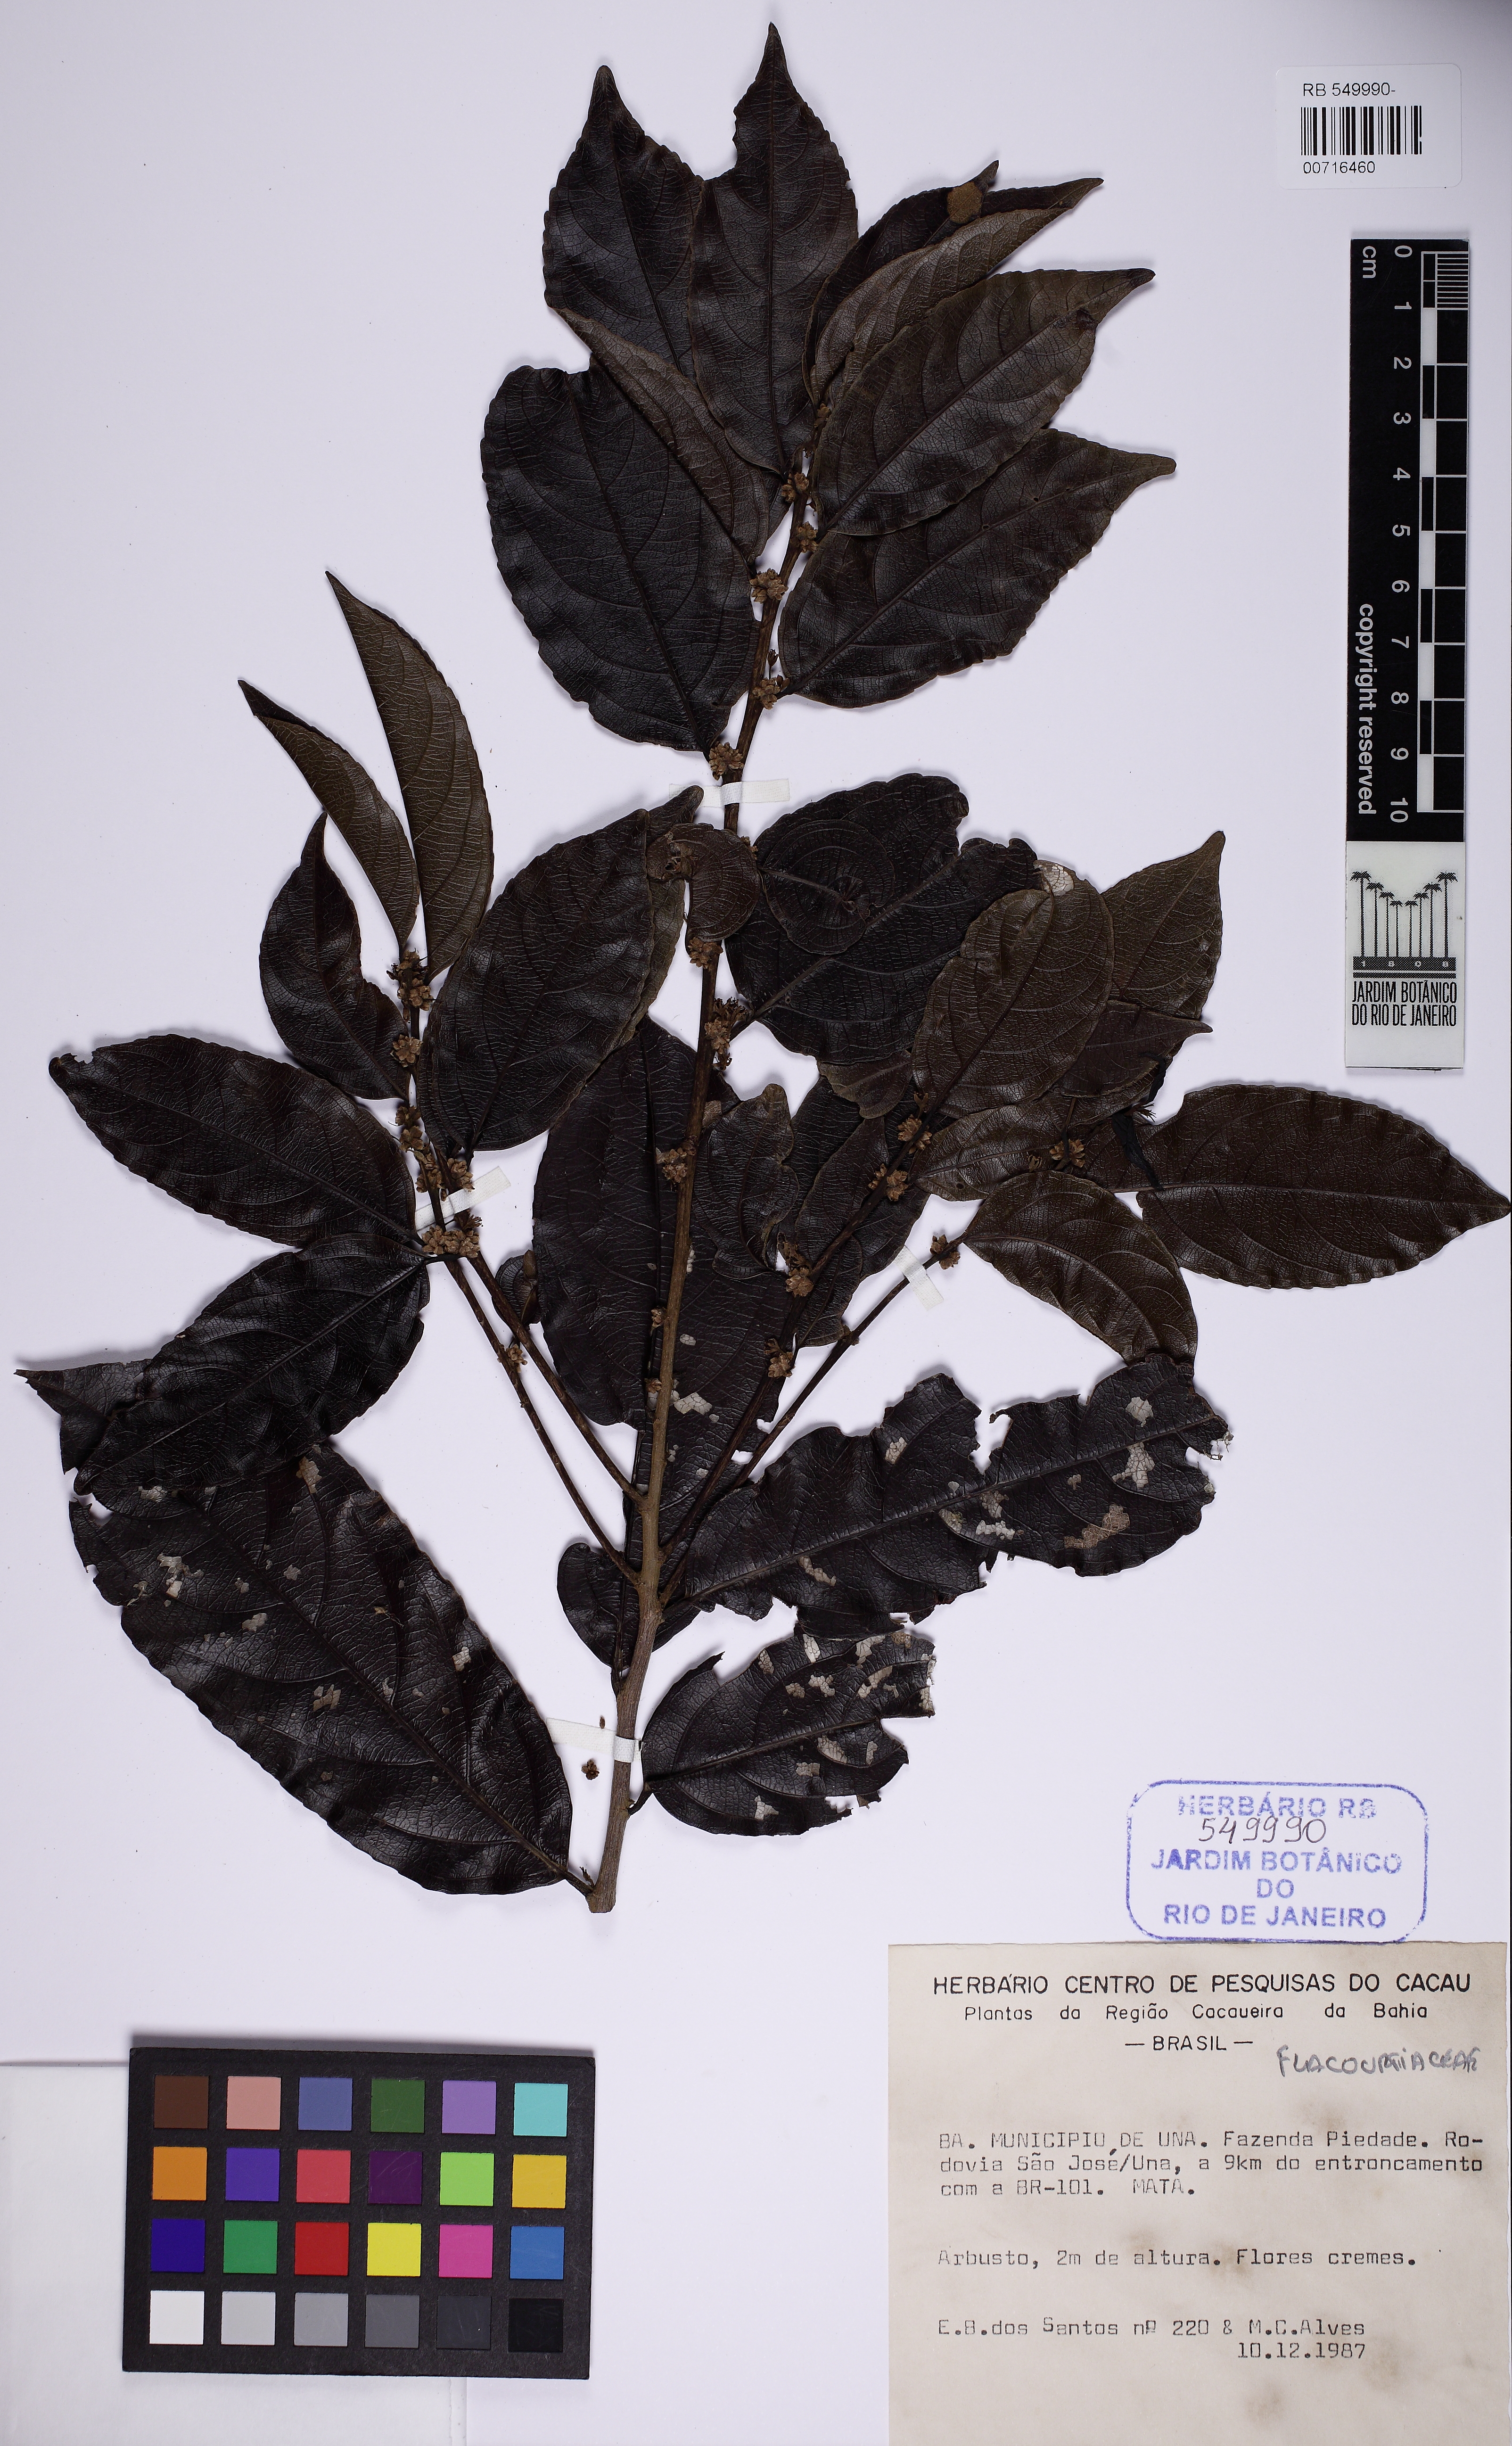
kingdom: Plantae
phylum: Tracheophyta
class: Magnoliopsida
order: Malpighiales
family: Salicaceae
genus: Piparea
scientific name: Piparea dentata
